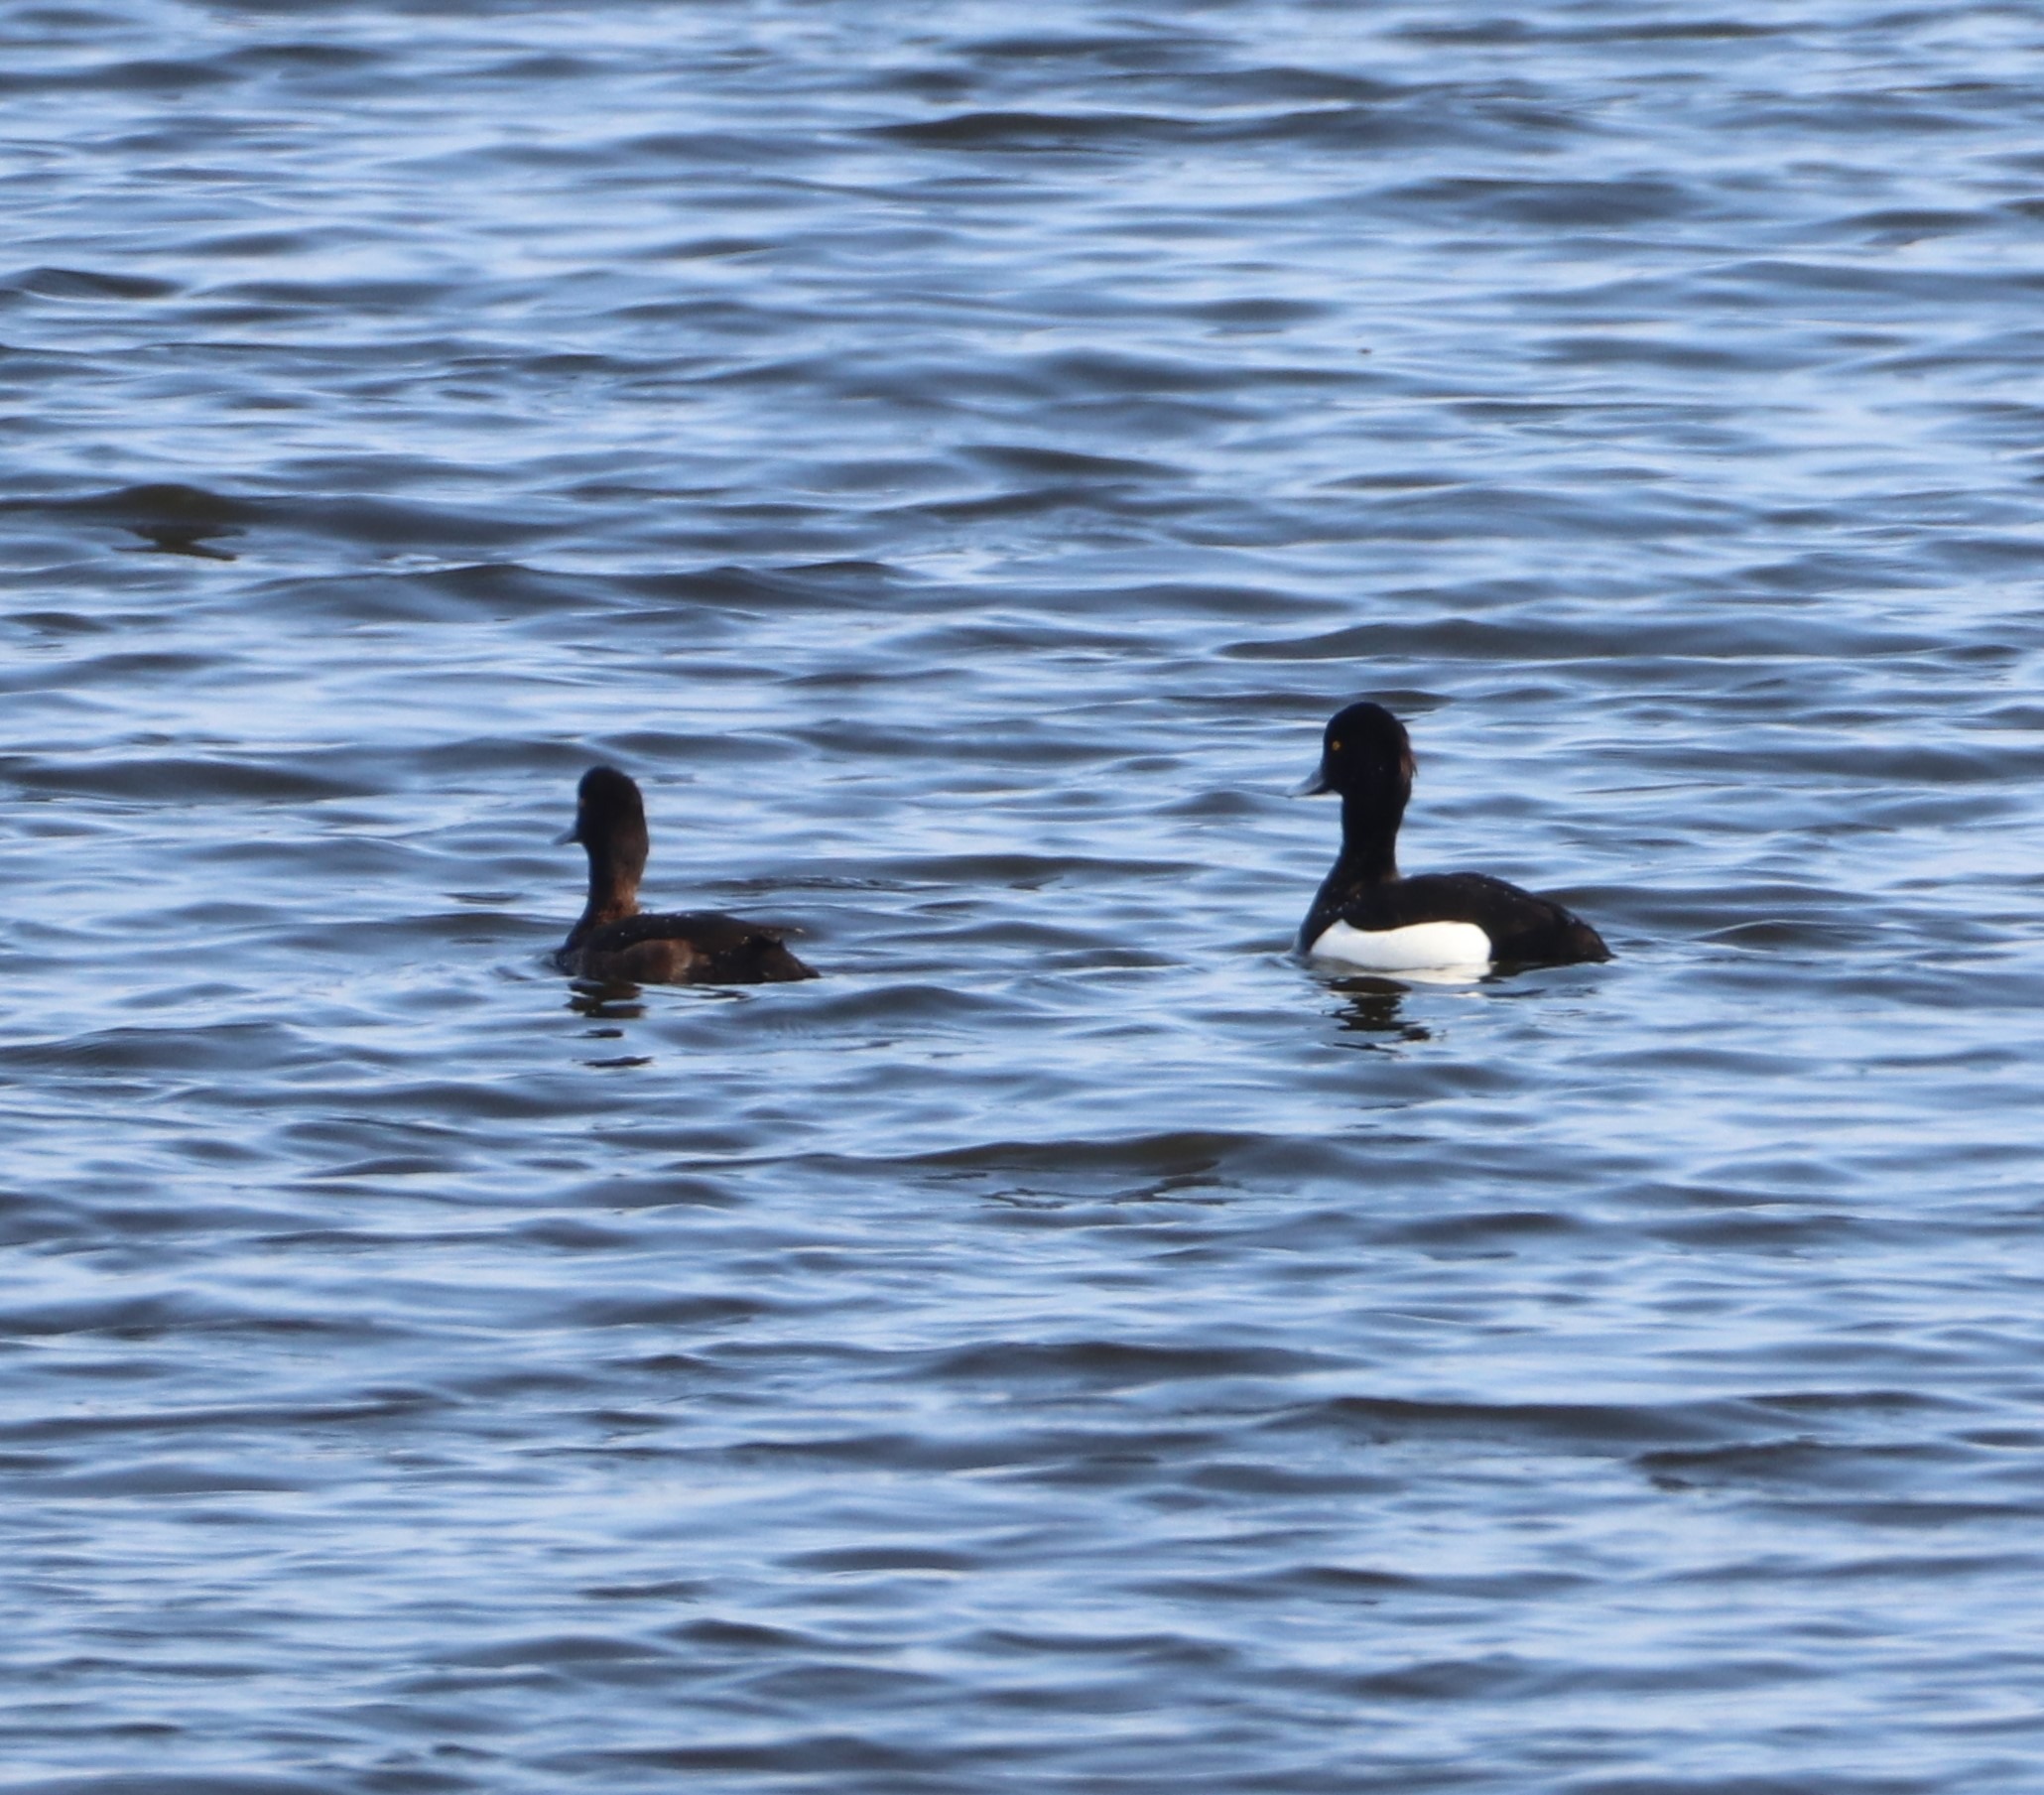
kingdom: Animalia
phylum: Chordata
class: Aves
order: Anseriformes
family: Anatidae
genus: Aythya
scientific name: Aythya fuligula
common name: Troldand
